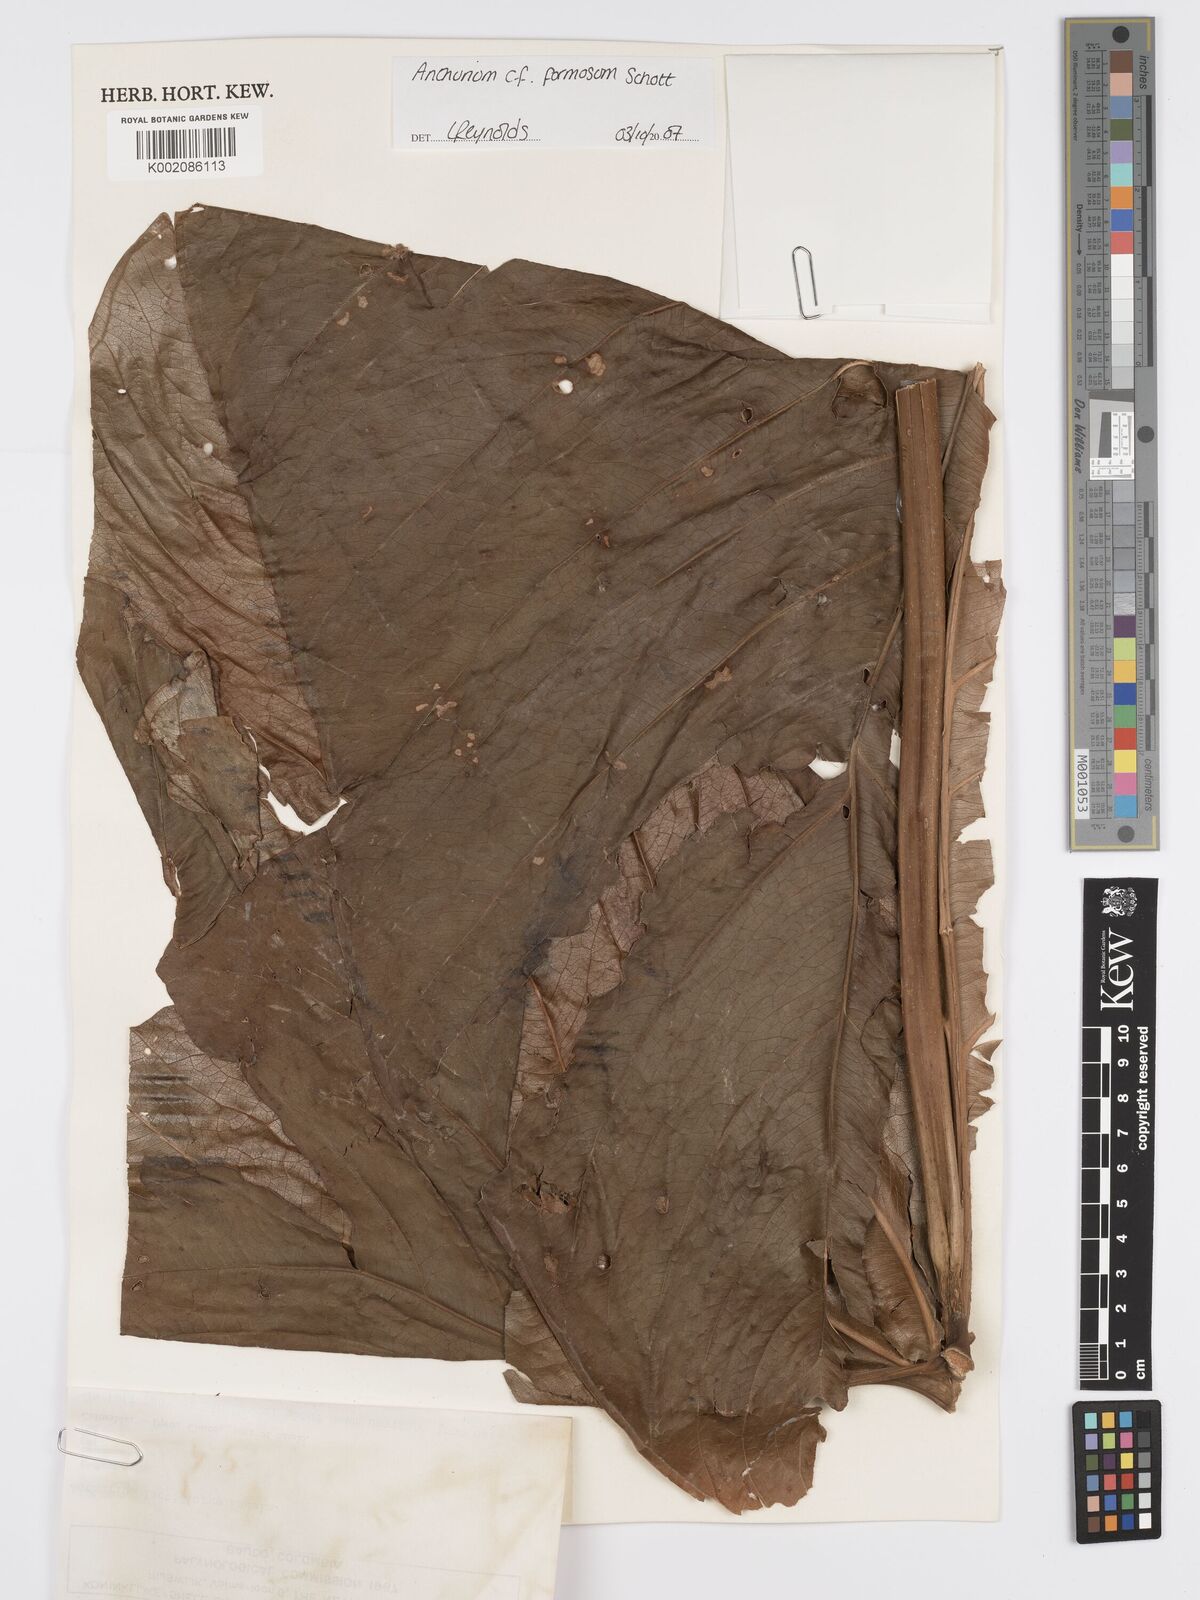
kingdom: Plantae
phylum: Tracheophyta
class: Liliopsida
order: Alismatales
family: Araceae
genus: Anthurium
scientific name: Anthurium formosum
